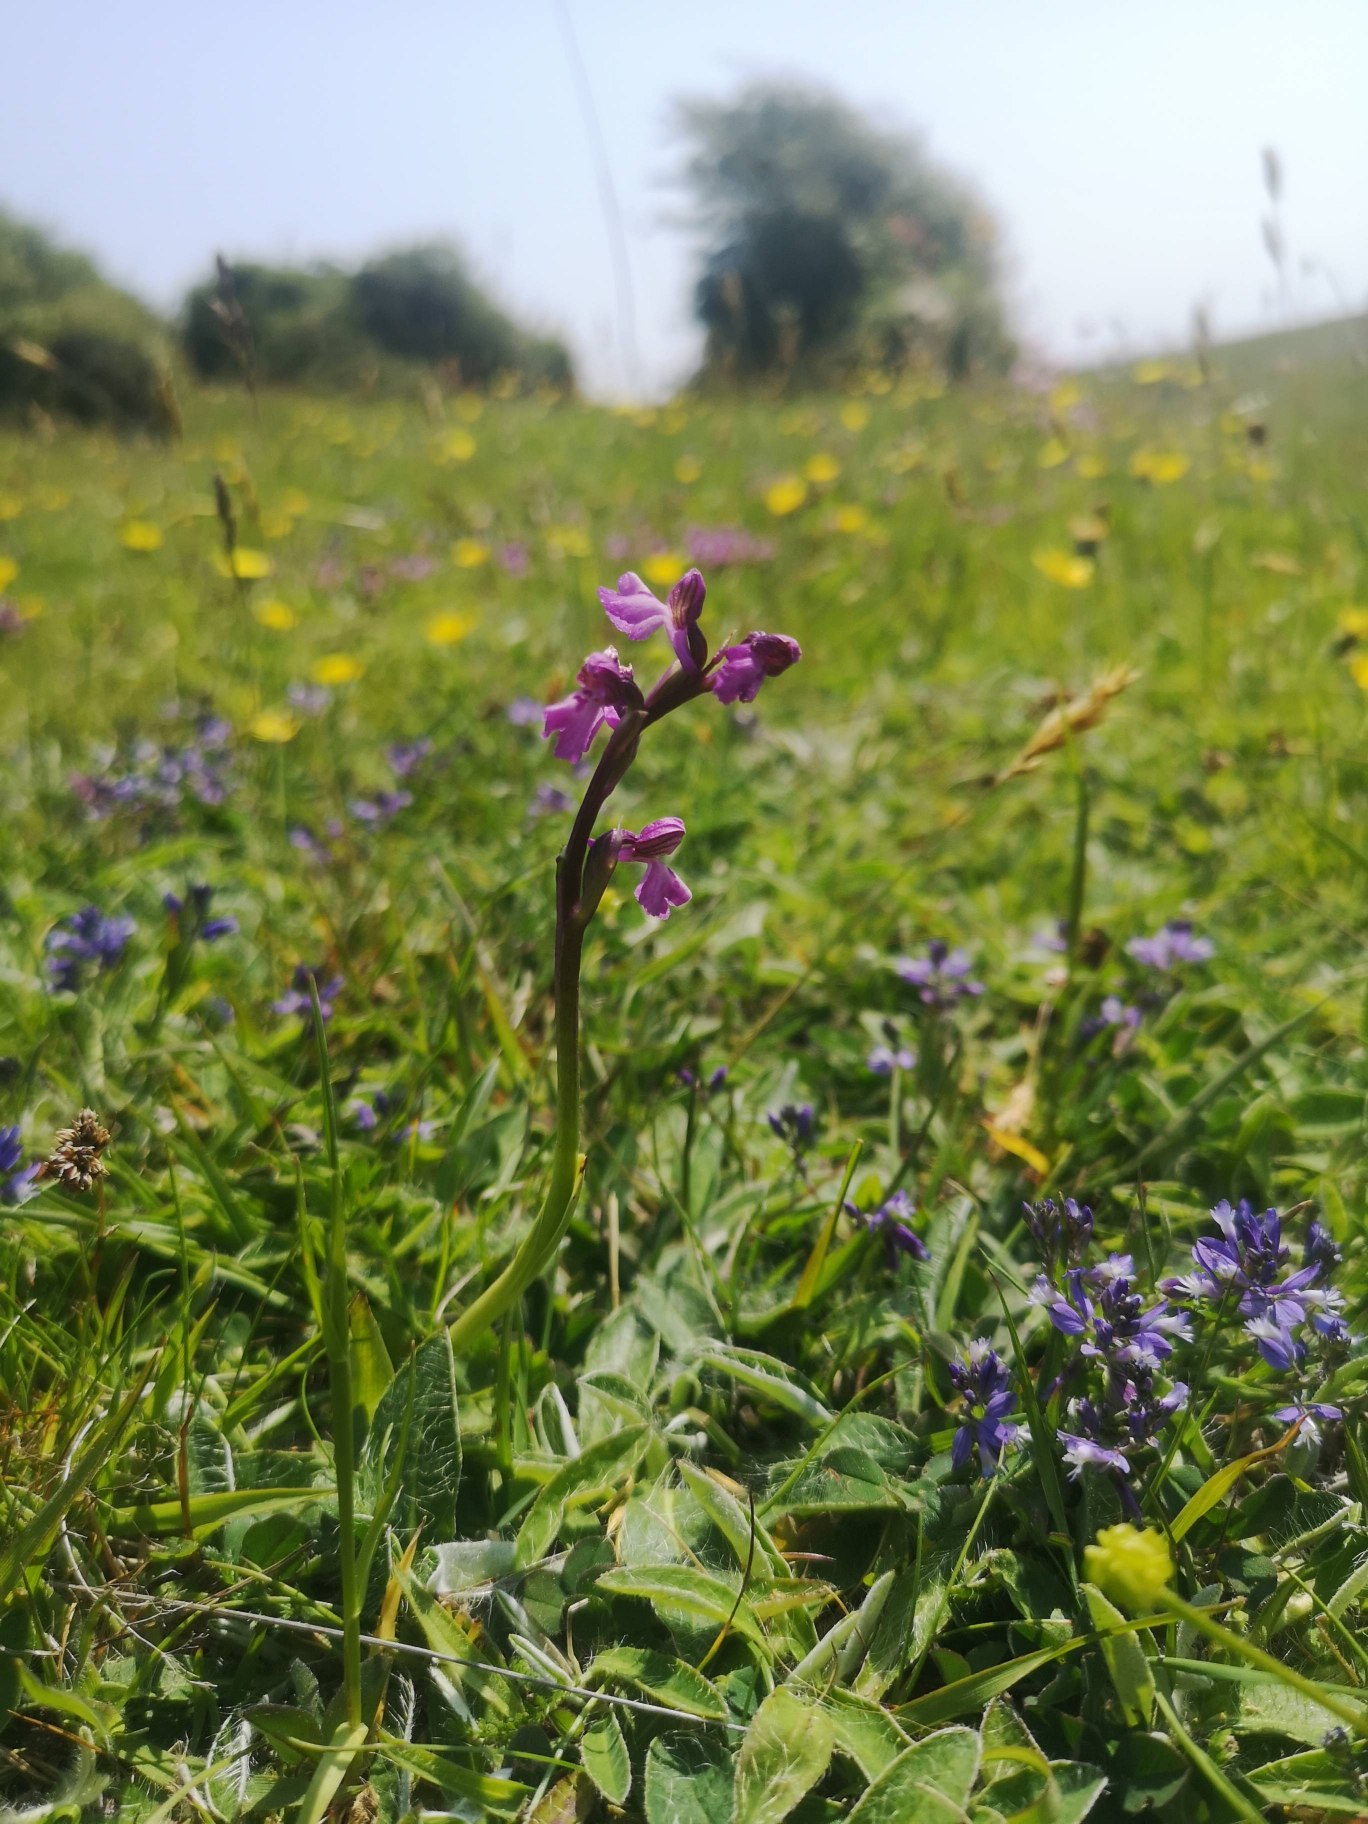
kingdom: Plantae
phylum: Tracheophyta
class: Liliopsida
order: Asparagales
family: Orchidaceae
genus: Anacamptis
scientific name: Anacamptis morio
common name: Salepgøgeurt
